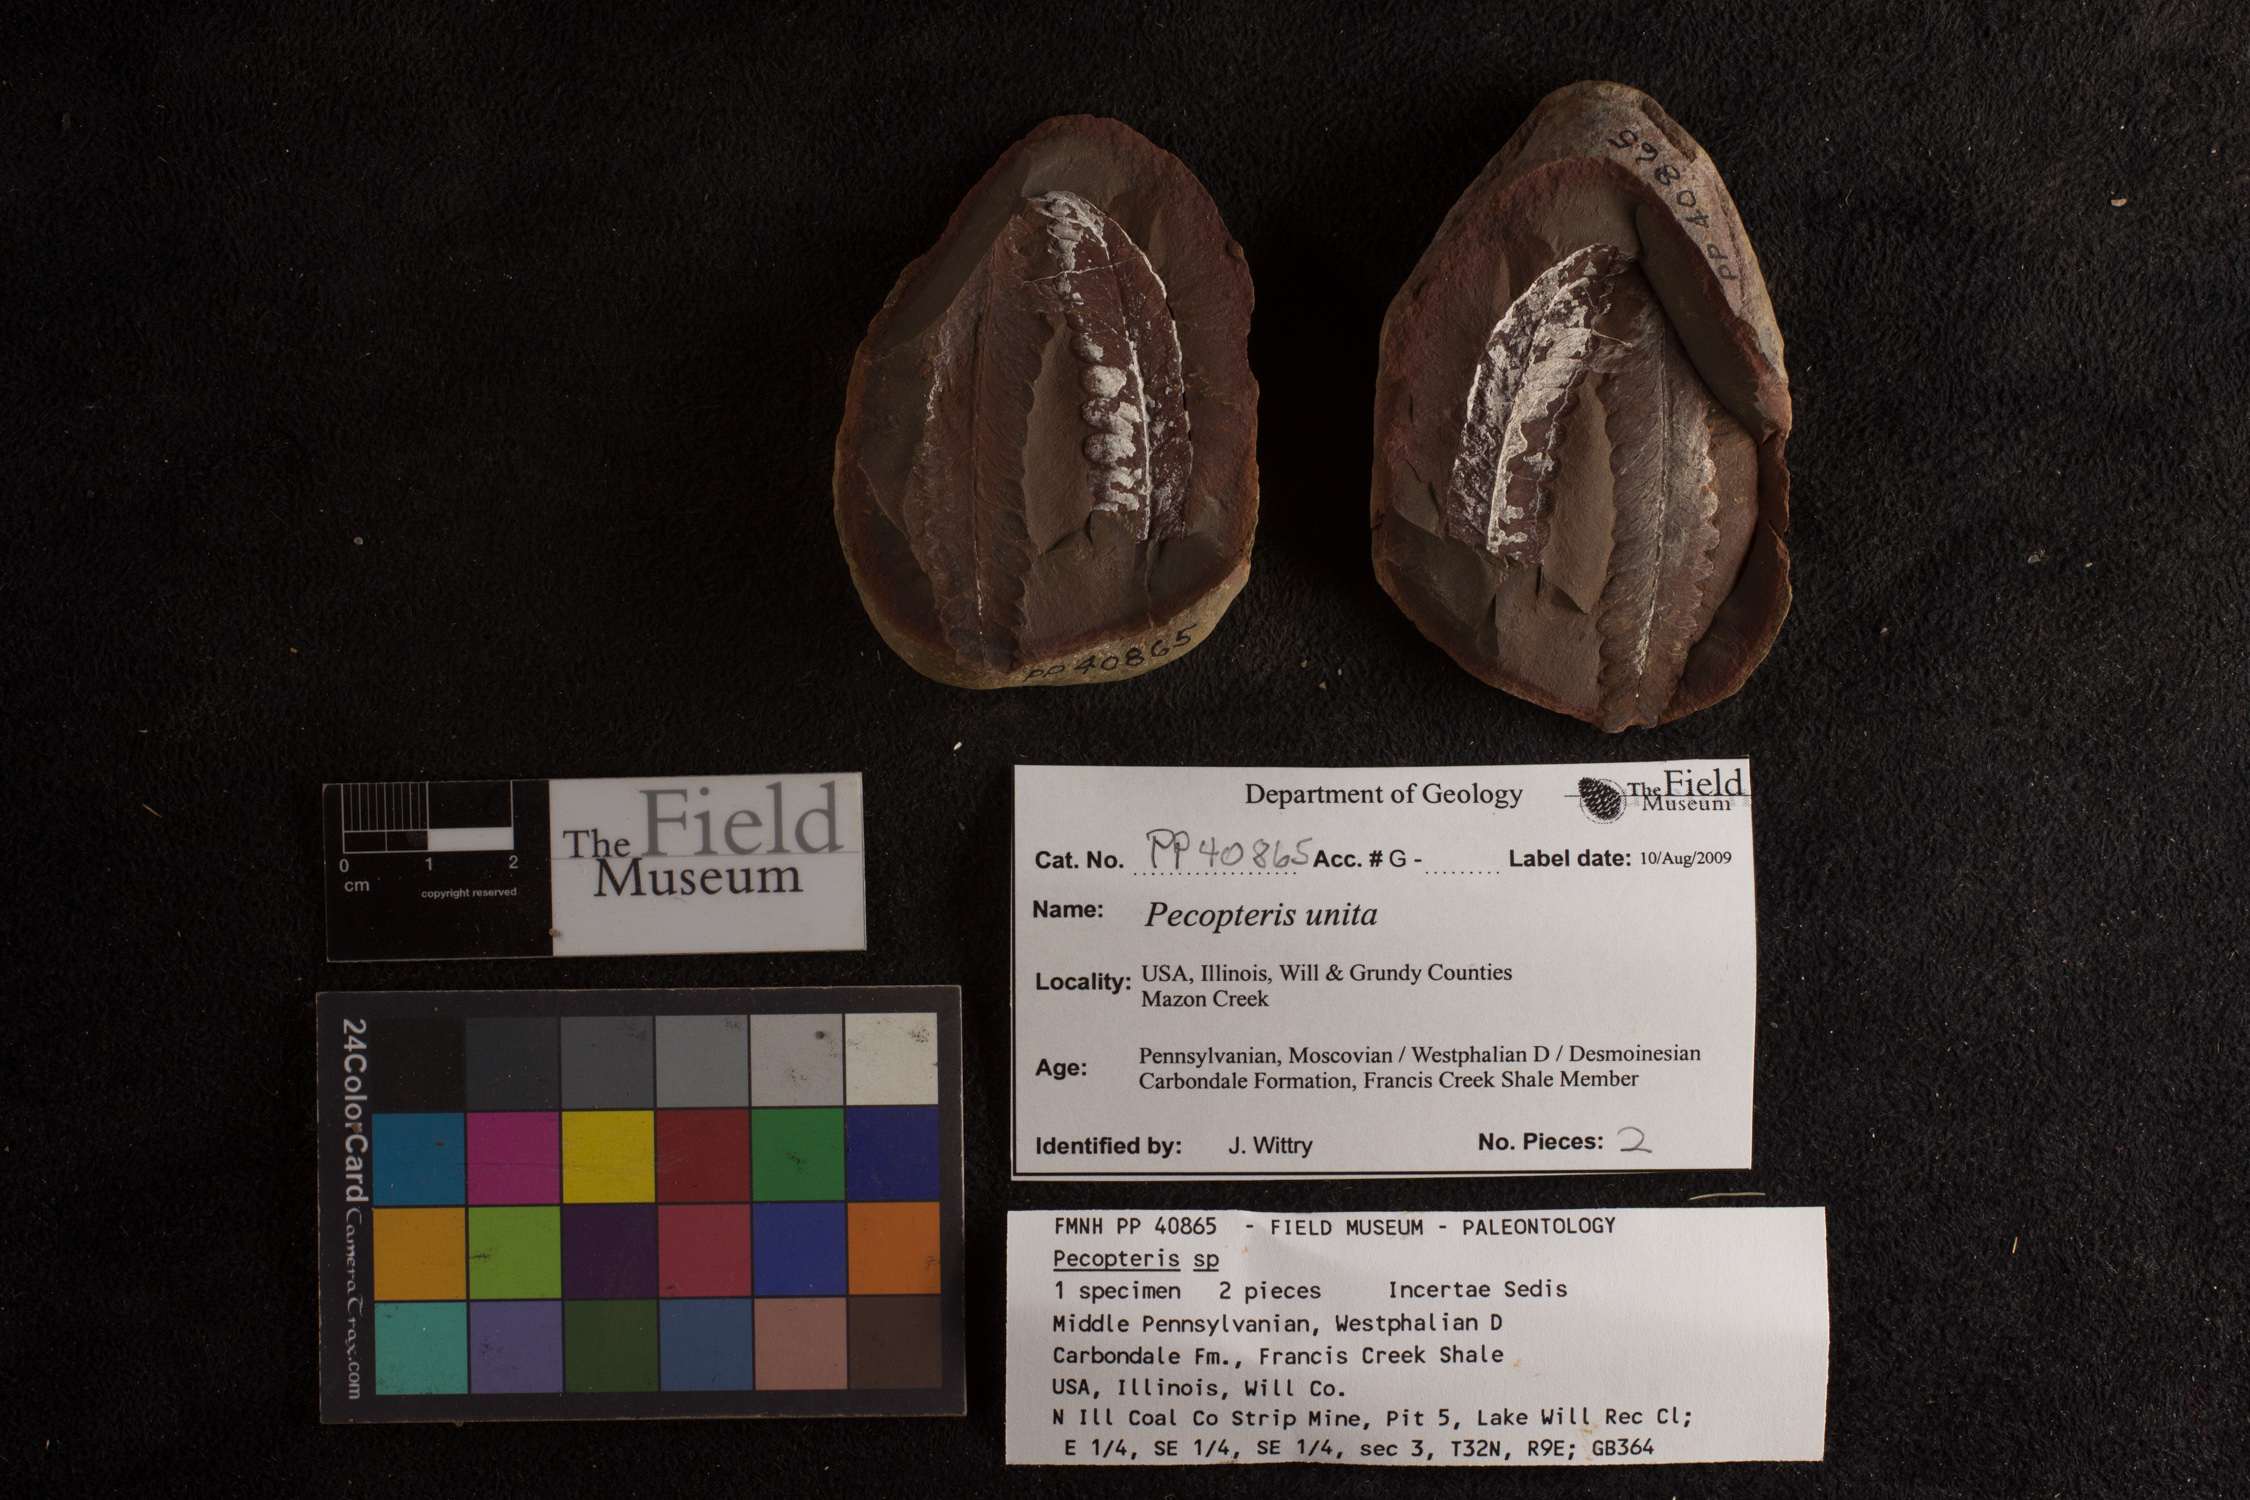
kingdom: Plantae
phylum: Tracheophyta
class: Polypodiopsida
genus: Diplazites
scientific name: Diplazites
